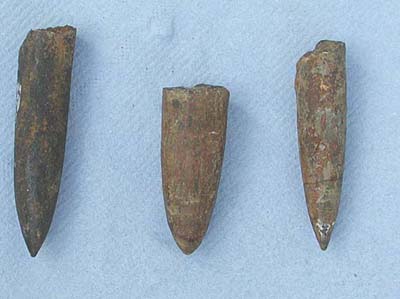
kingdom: Animalia
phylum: Mollusca
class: Cephalopoda
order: Belemnitida
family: Passaloteuthidae
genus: Brevibelus
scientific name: Brevibelus breviformis
